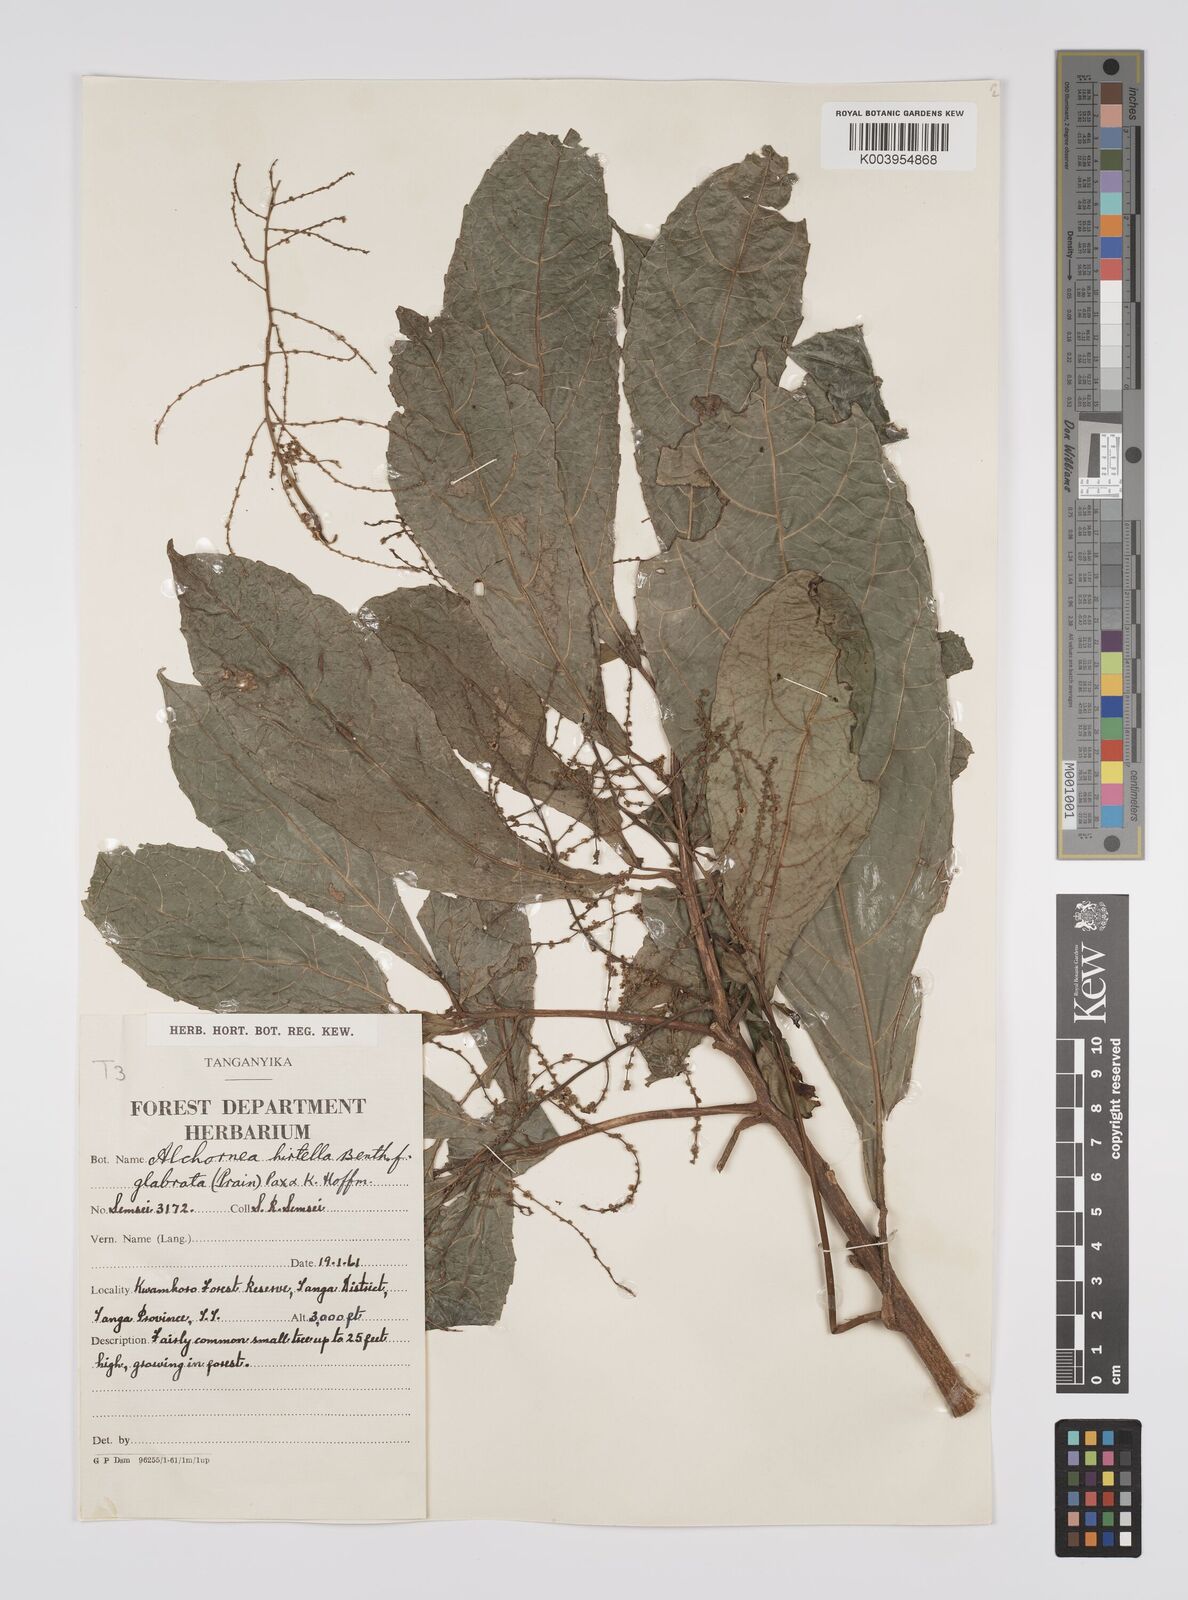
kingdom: Plantae
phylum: Tracheophyta
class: Magnoliopsida
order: Malpighiales
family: Euphorbiaceae
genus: Alchornea
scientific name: Alchornea hirtella
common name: Forest bead-string
